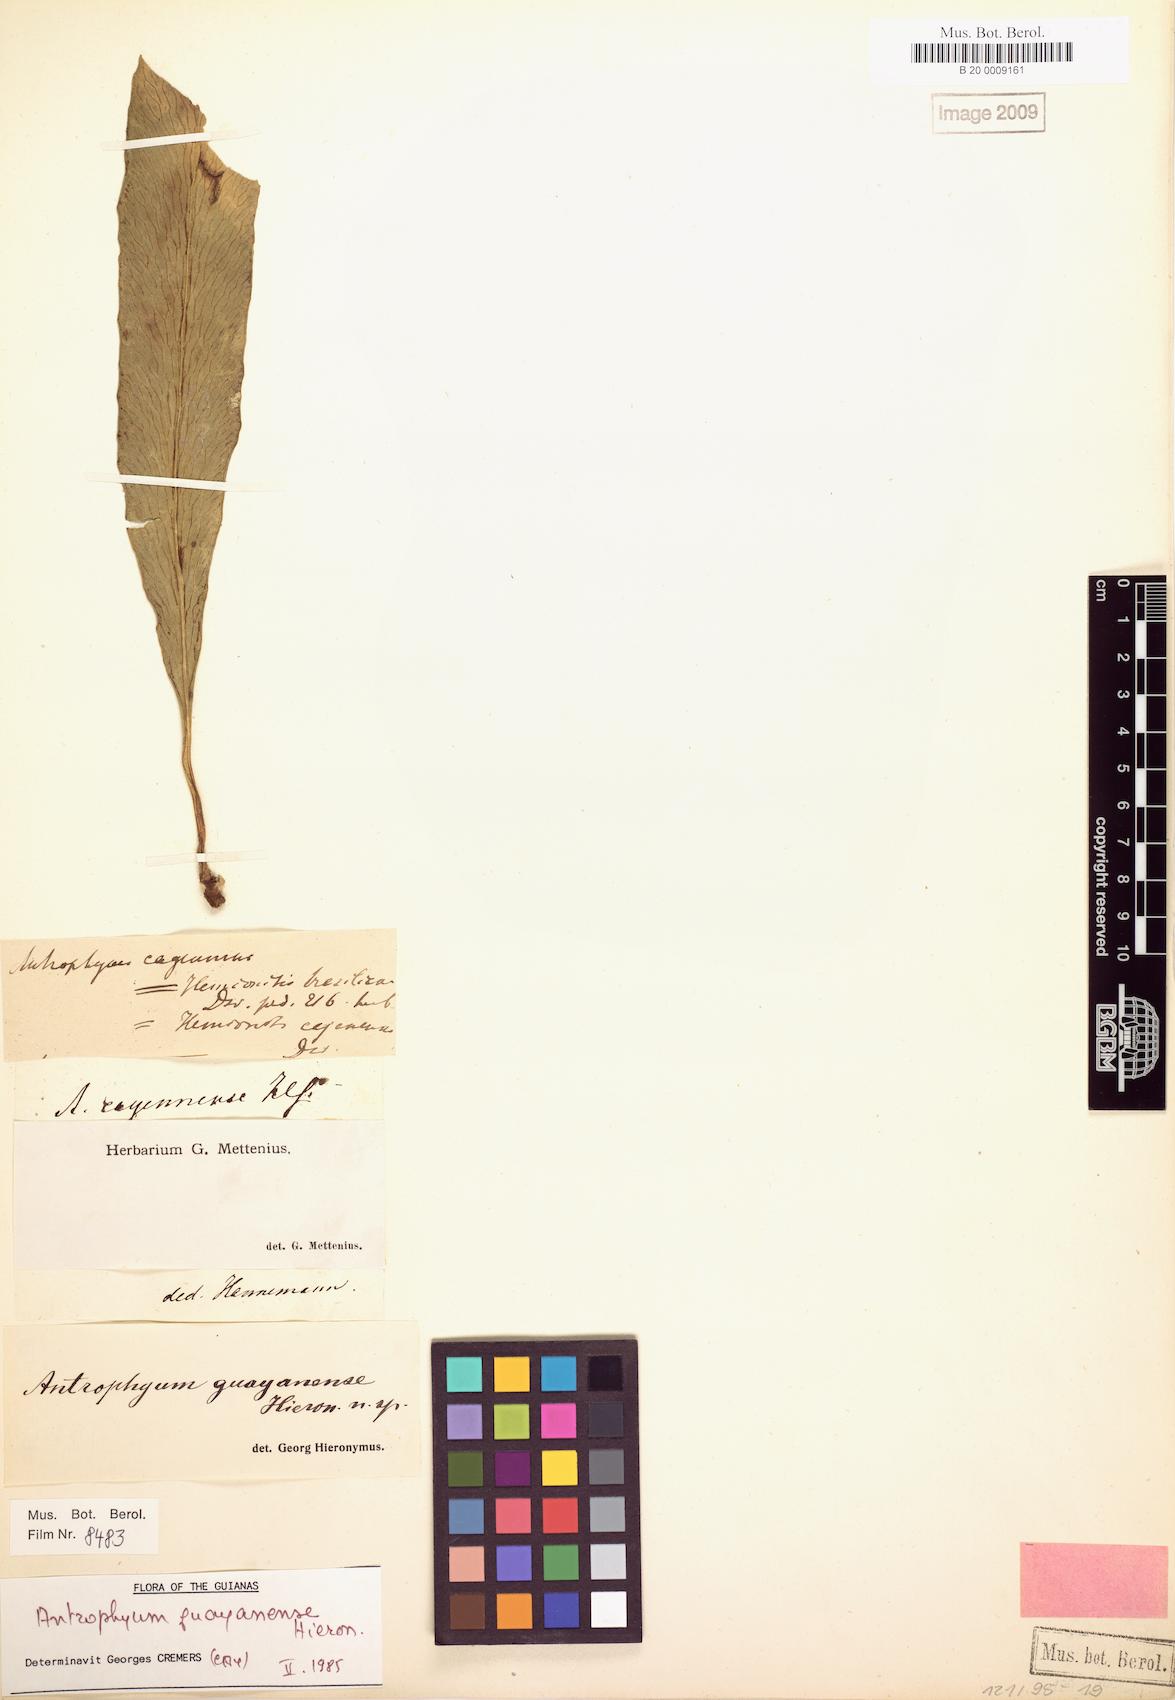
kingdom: Plantae
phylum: Tracheophyta
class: Polypodiopsida
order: Polypodiales
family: Pteridaceae
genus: Polytaenium
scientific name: Polytaenium guayanense
